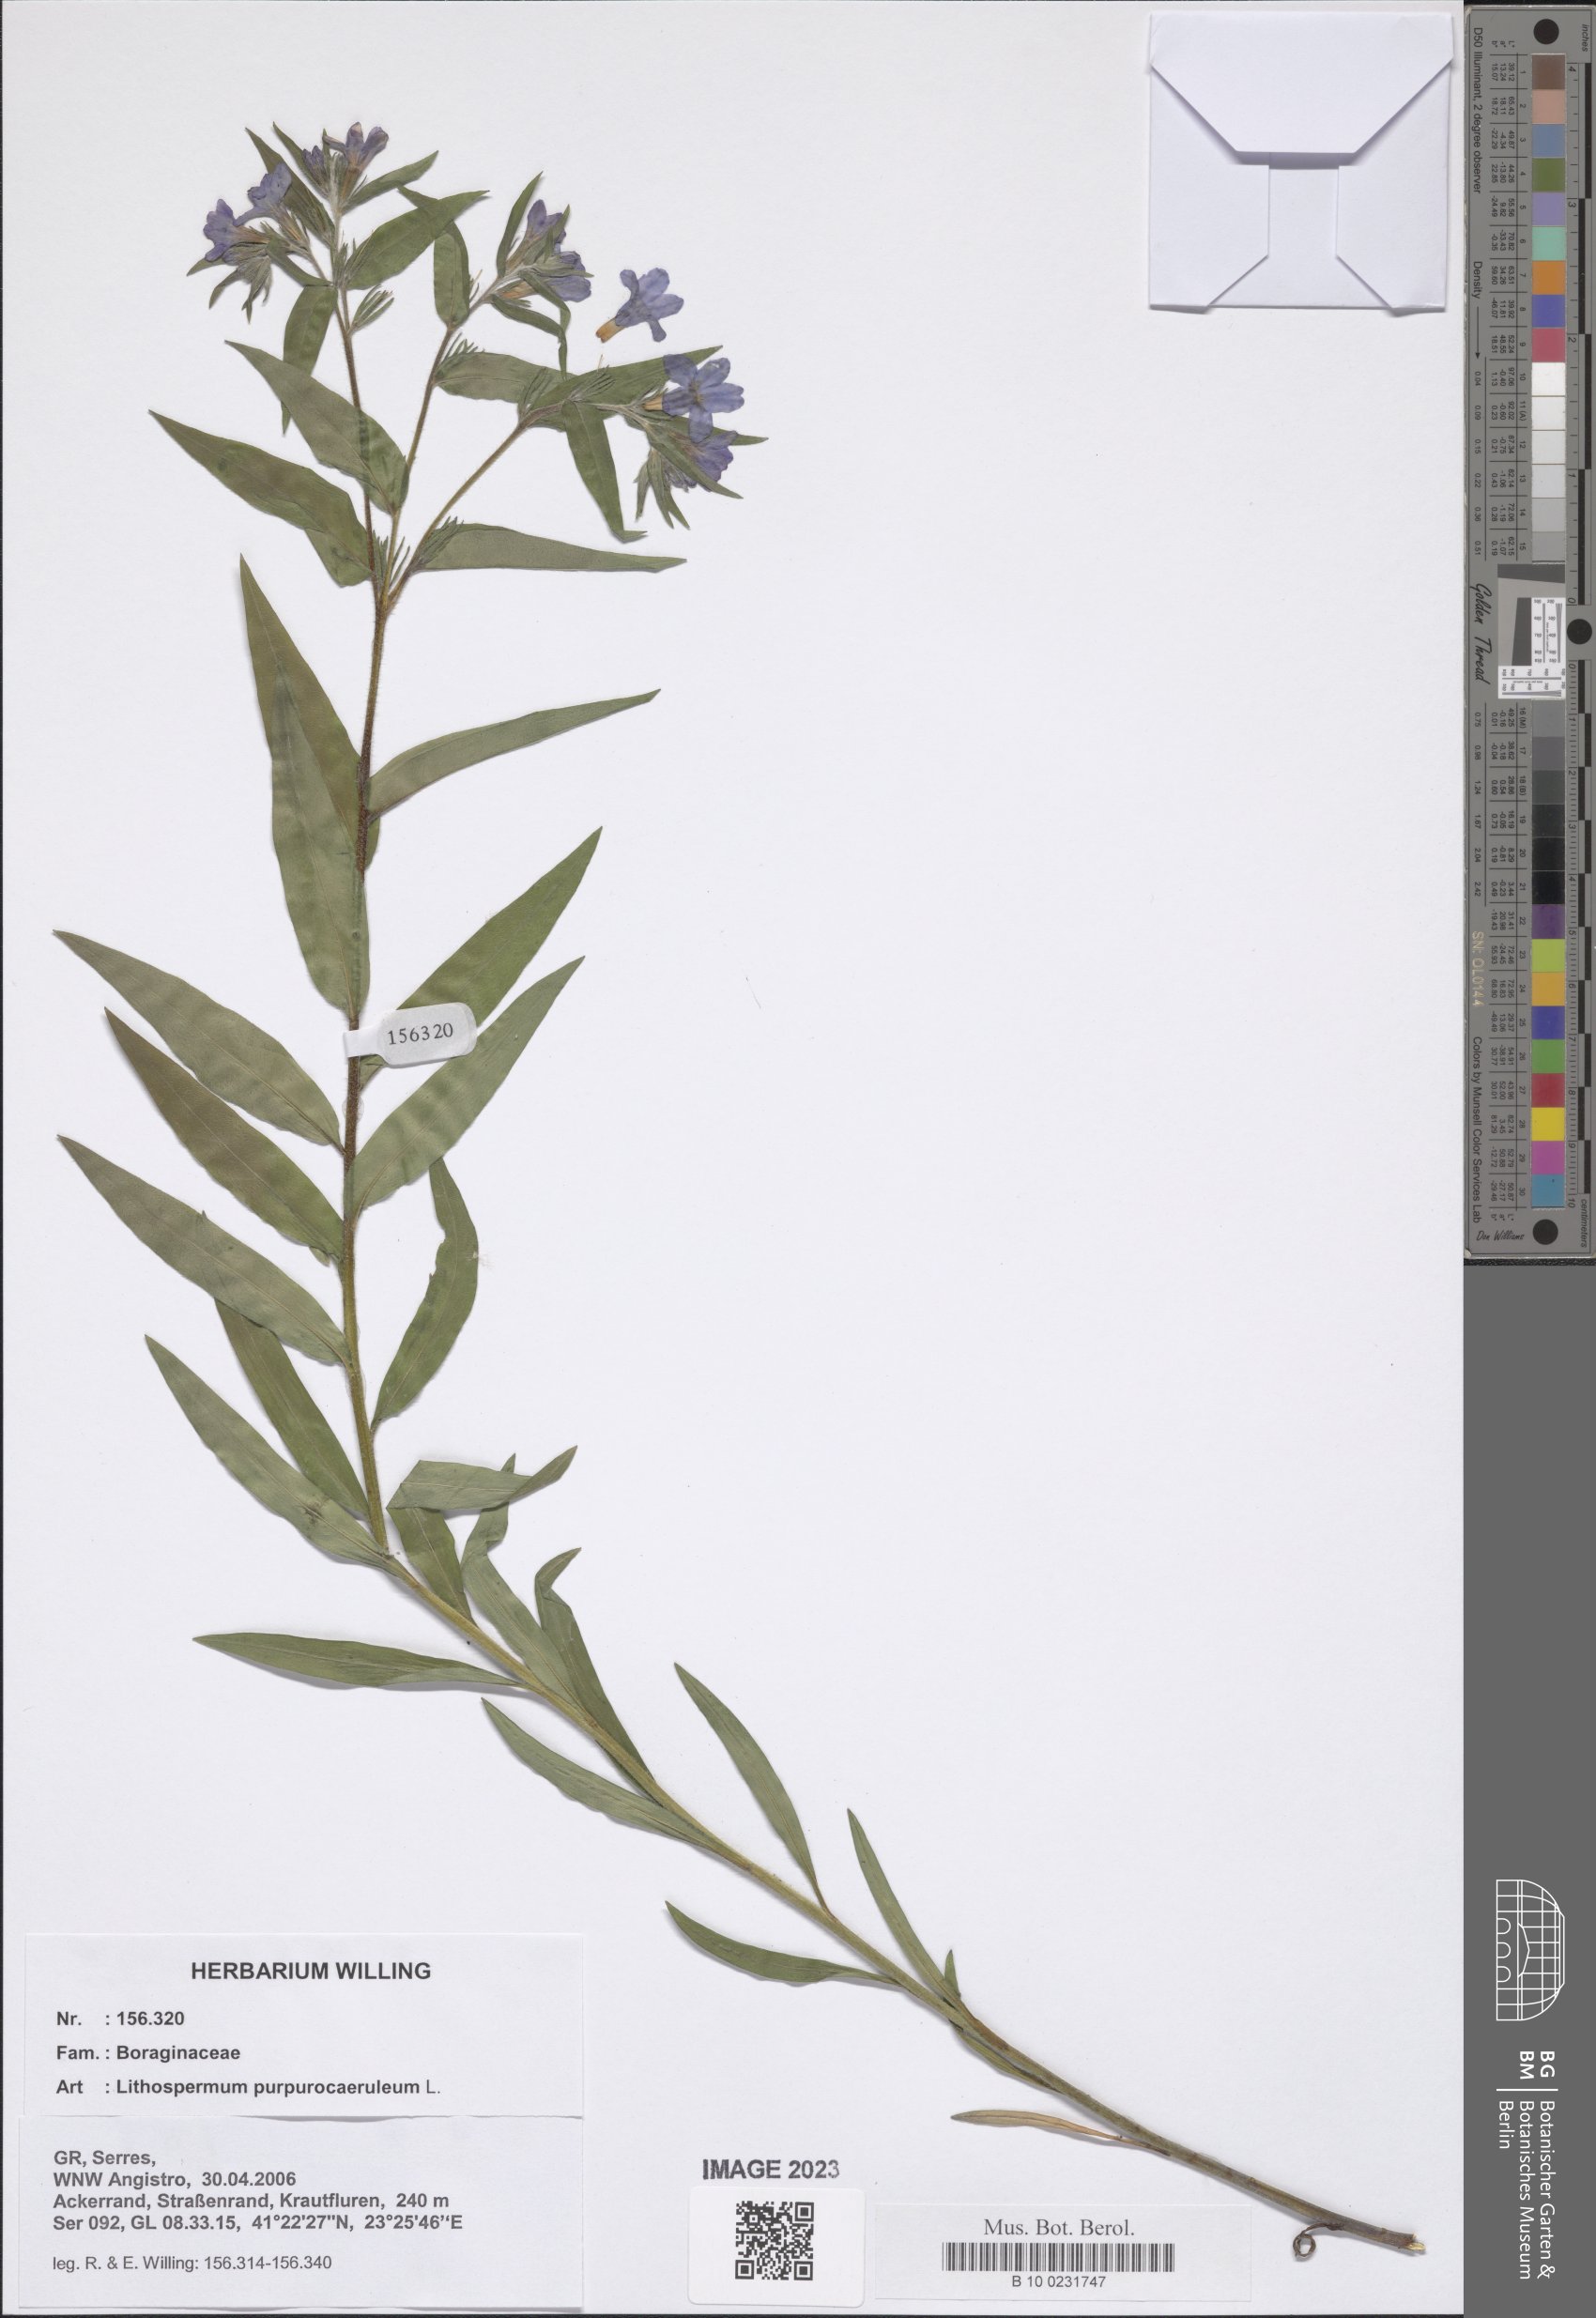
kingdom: Plantae
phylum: Tracheophyta
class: Magnoliopsida
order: Boraginales
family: Boraginaceae
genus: Aegonychon
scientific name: Aegonychon purpurocaeruleum
